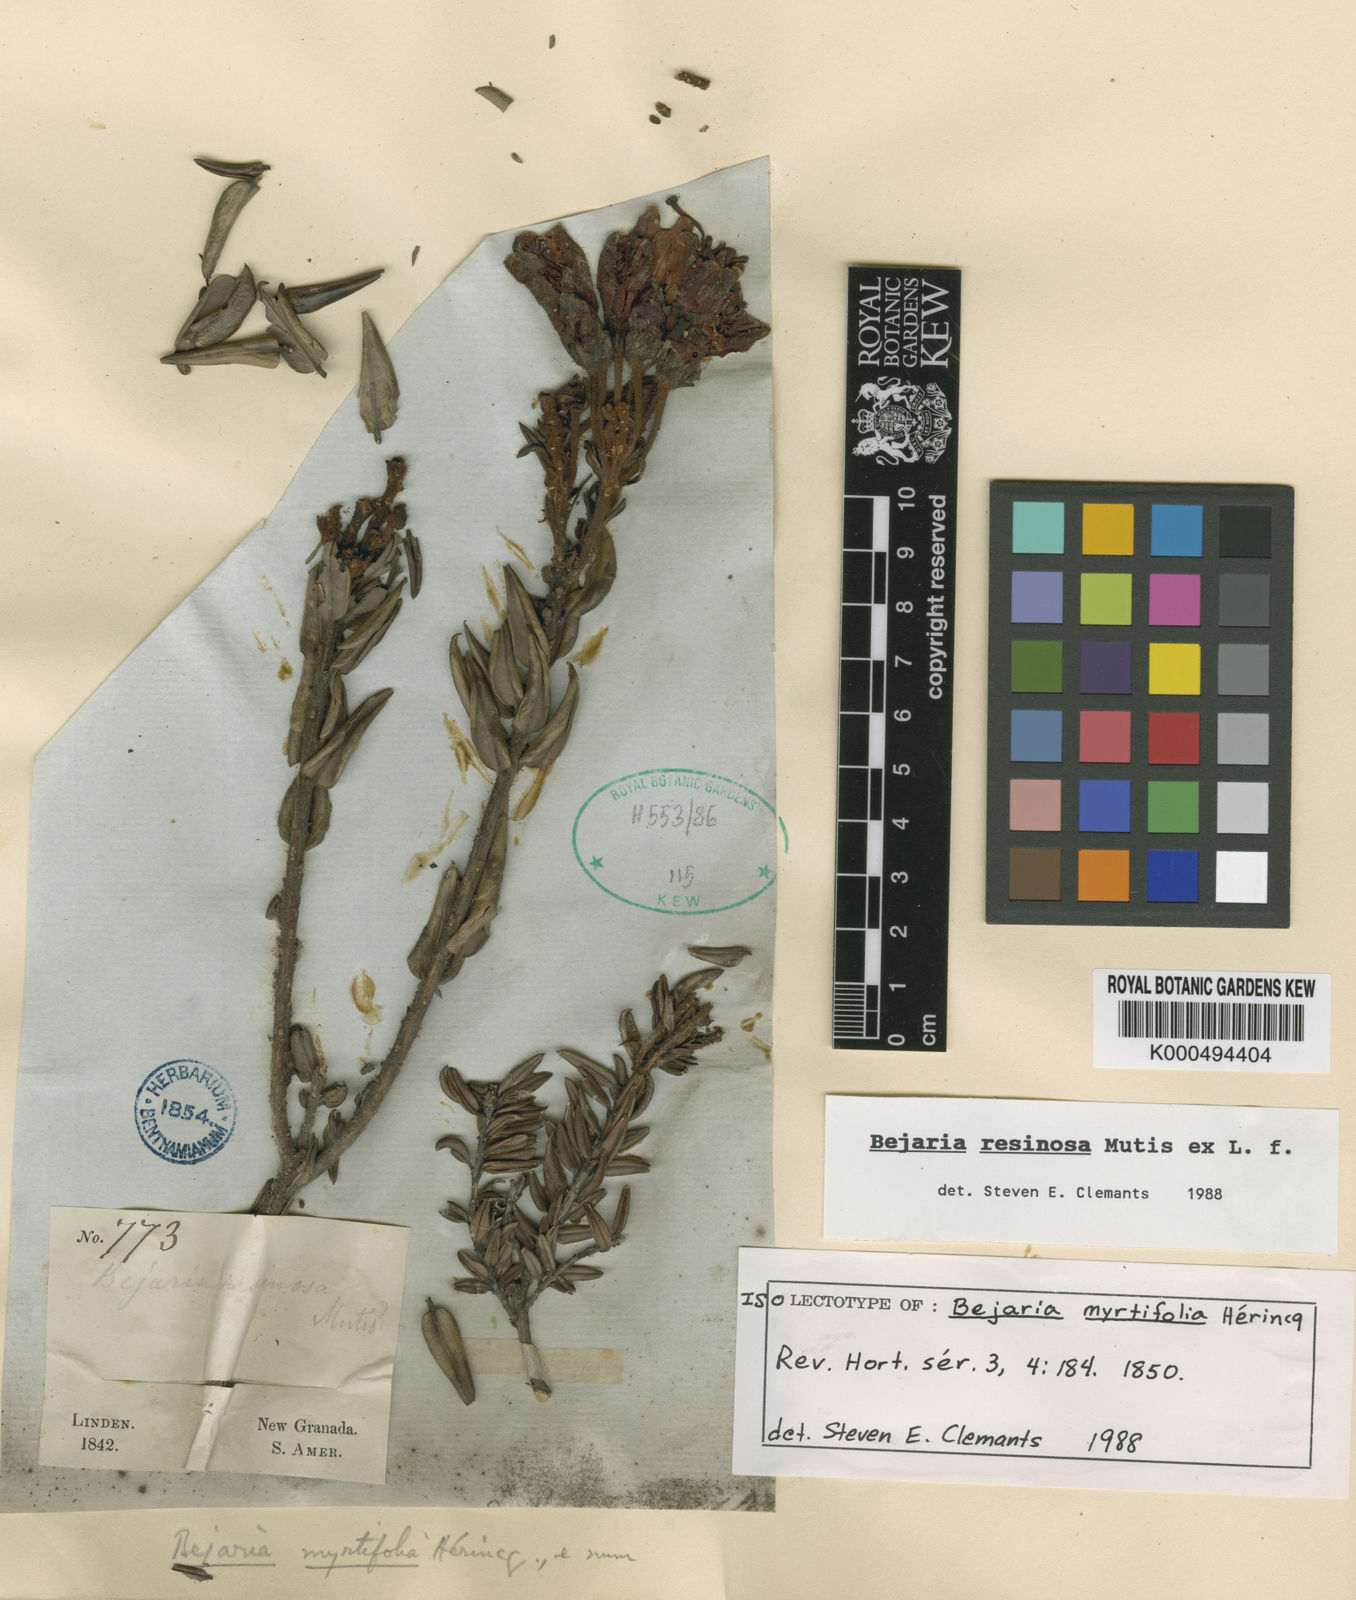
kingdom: Plantae
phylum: Tracheophyta
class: Magnoliopsida
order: Ericales
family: Ericaceae
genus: Bejaria
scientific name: Bejaria resinosa
